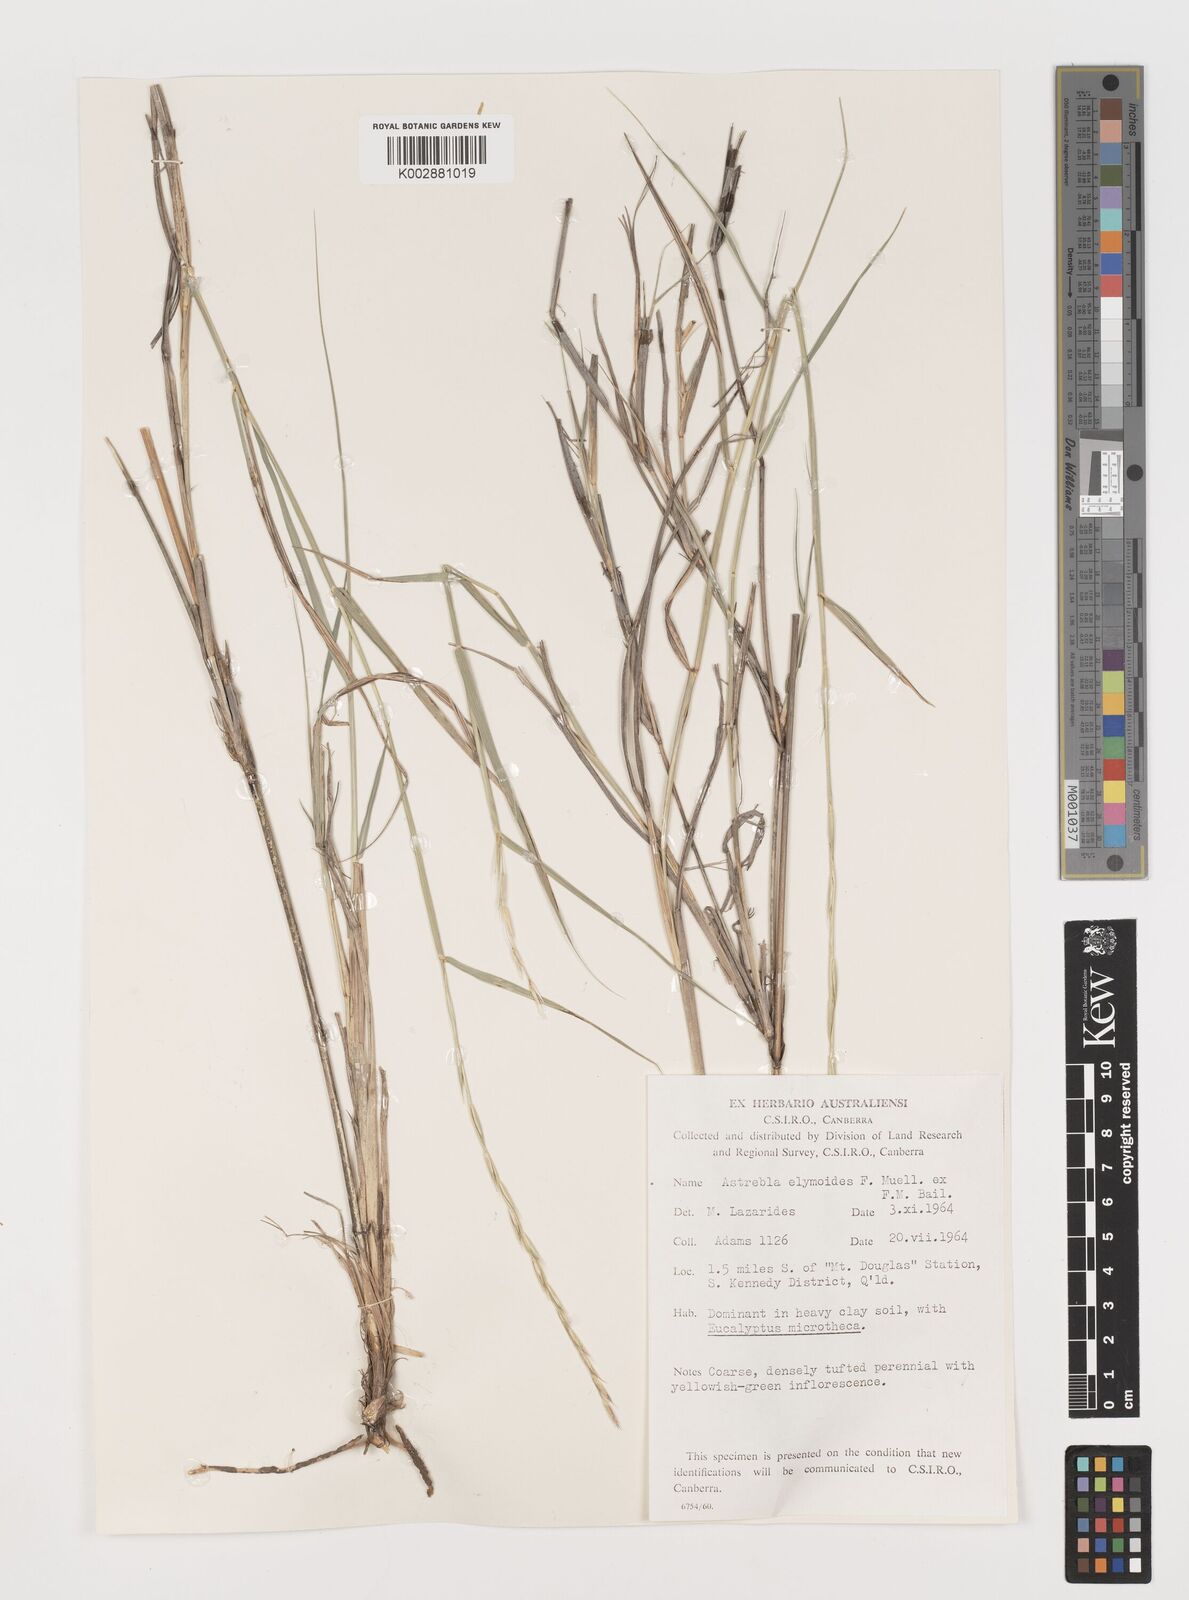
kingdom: Plantae
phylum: Tracheophyta
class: Liliopsida
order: Poales
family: Poaceae
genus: Astrebla
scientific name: Astrebla elymoides
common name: Hoop mitchell grass
